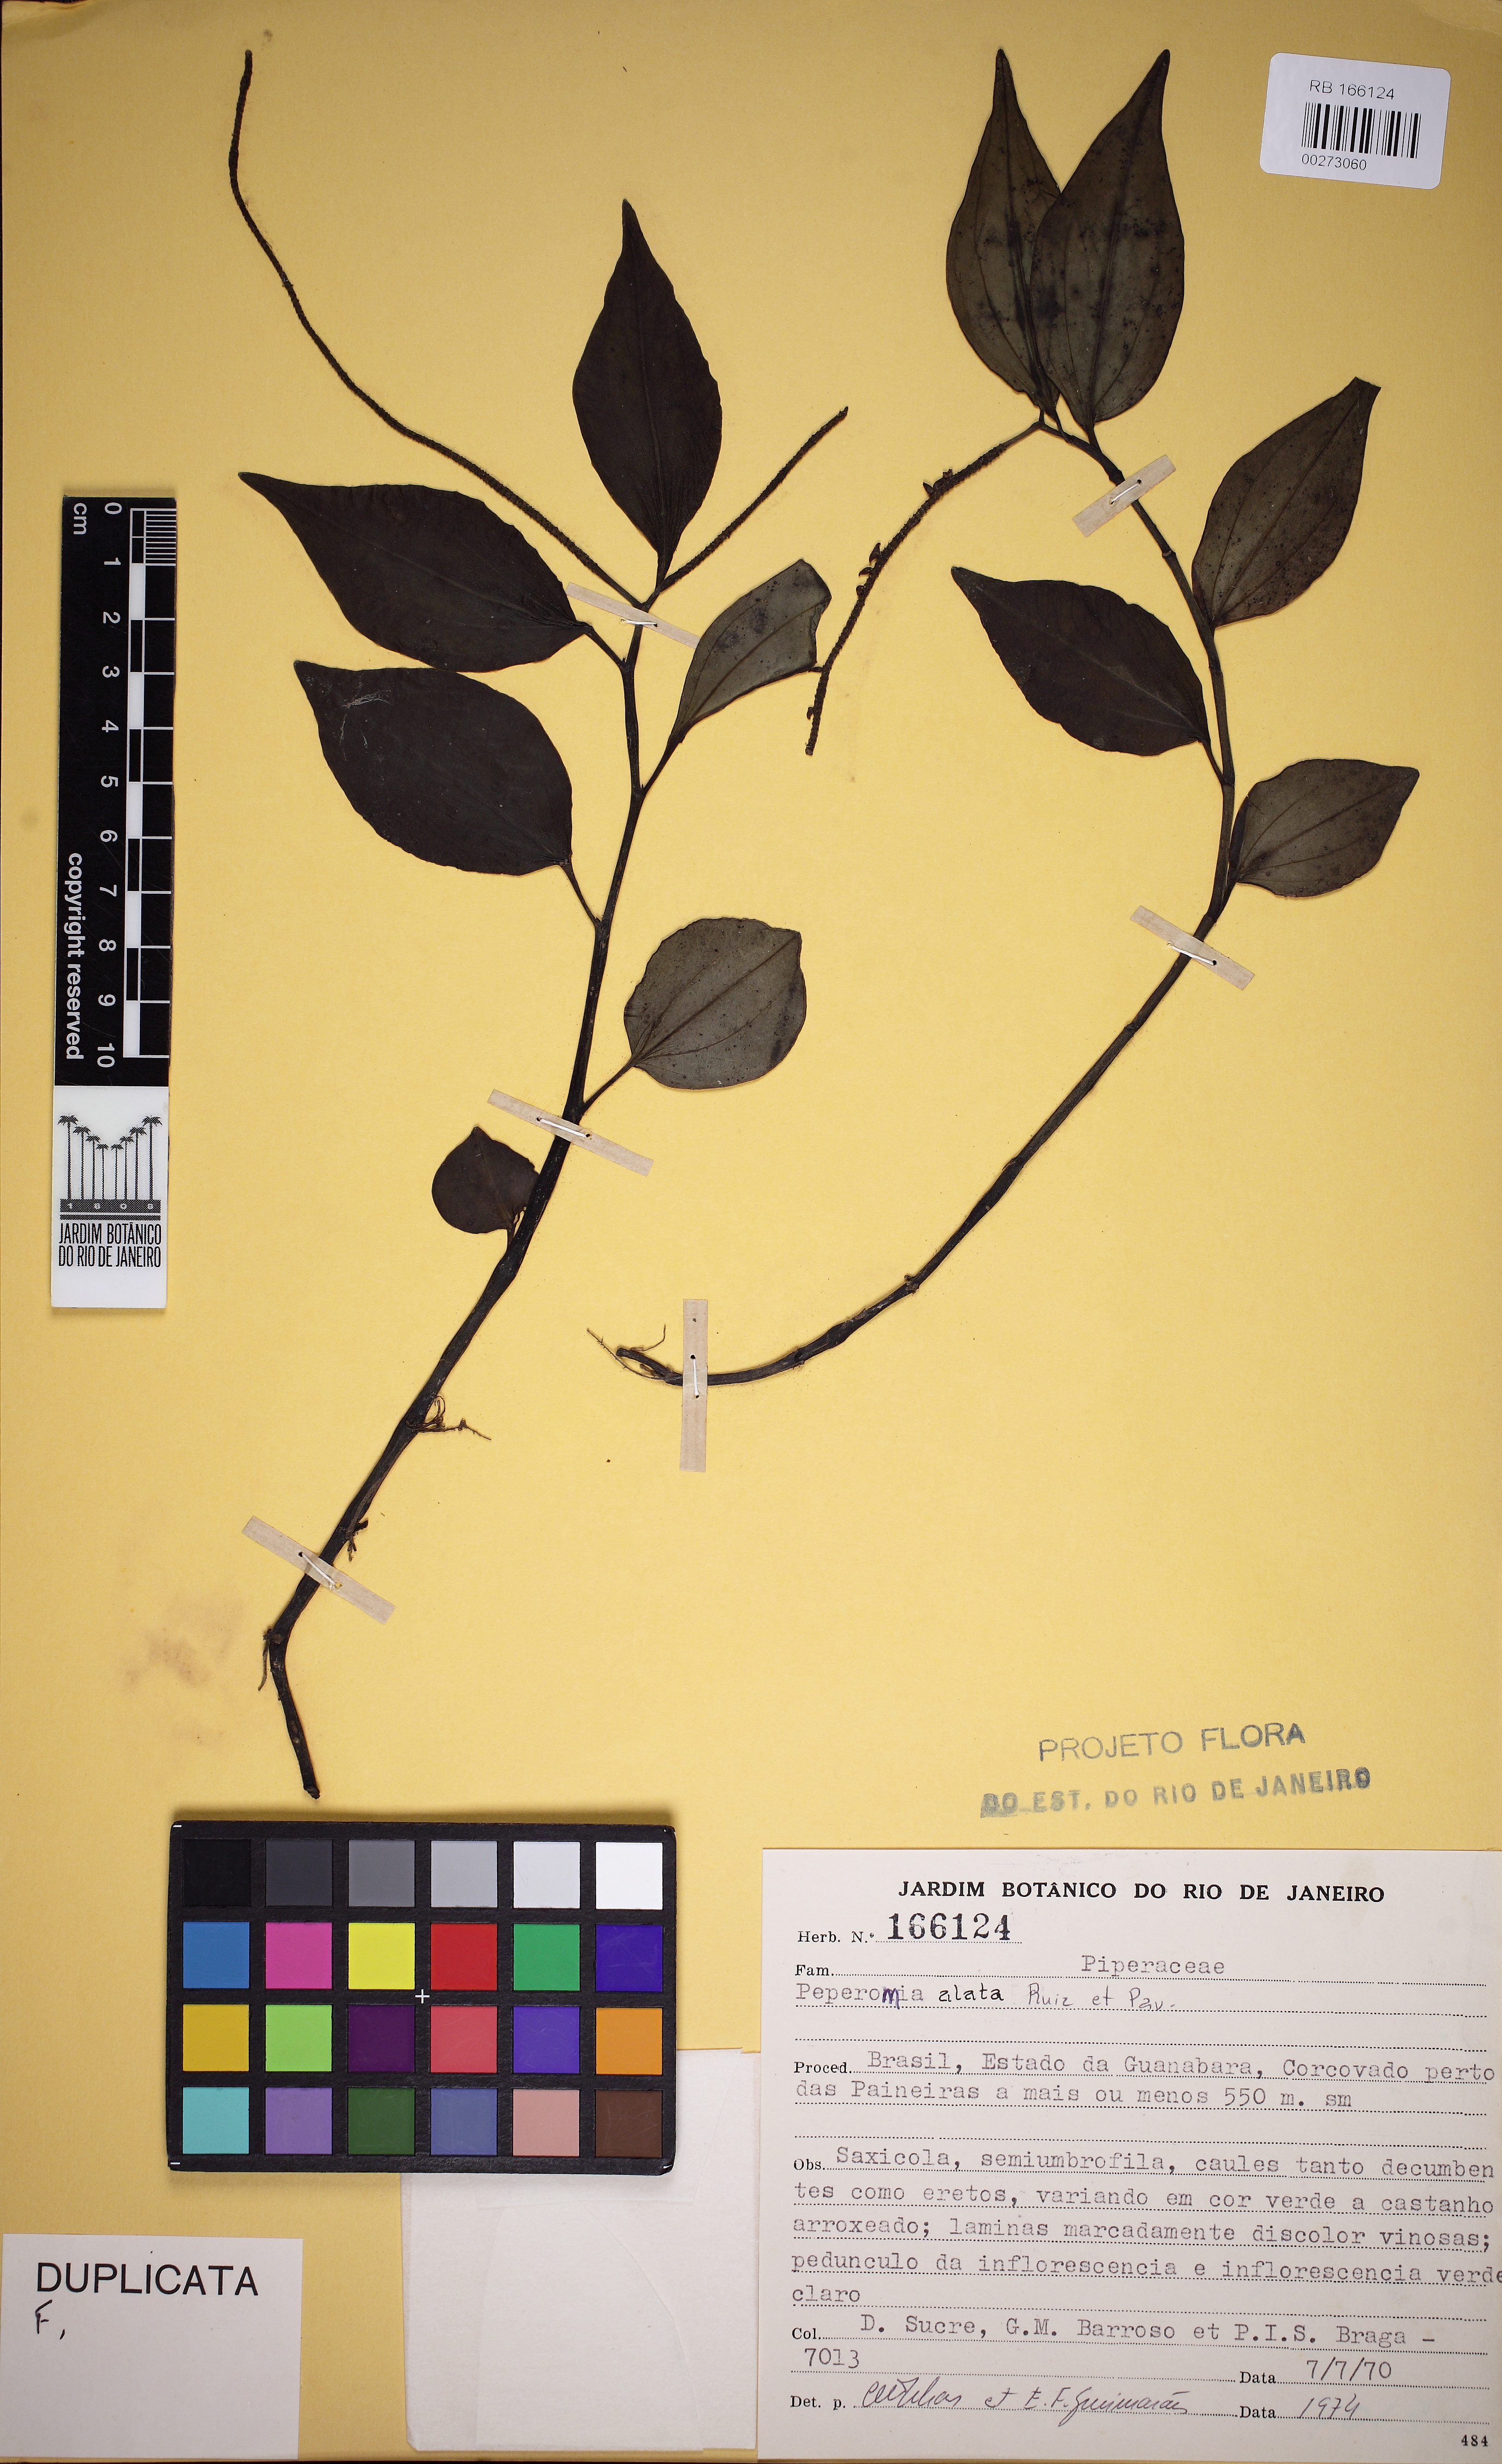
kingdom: Plantae
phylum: Tracheophyta
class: Magnoliopsida
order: Piperales
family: Piperaceae
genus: Peperomia
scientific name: Peperomia alata
